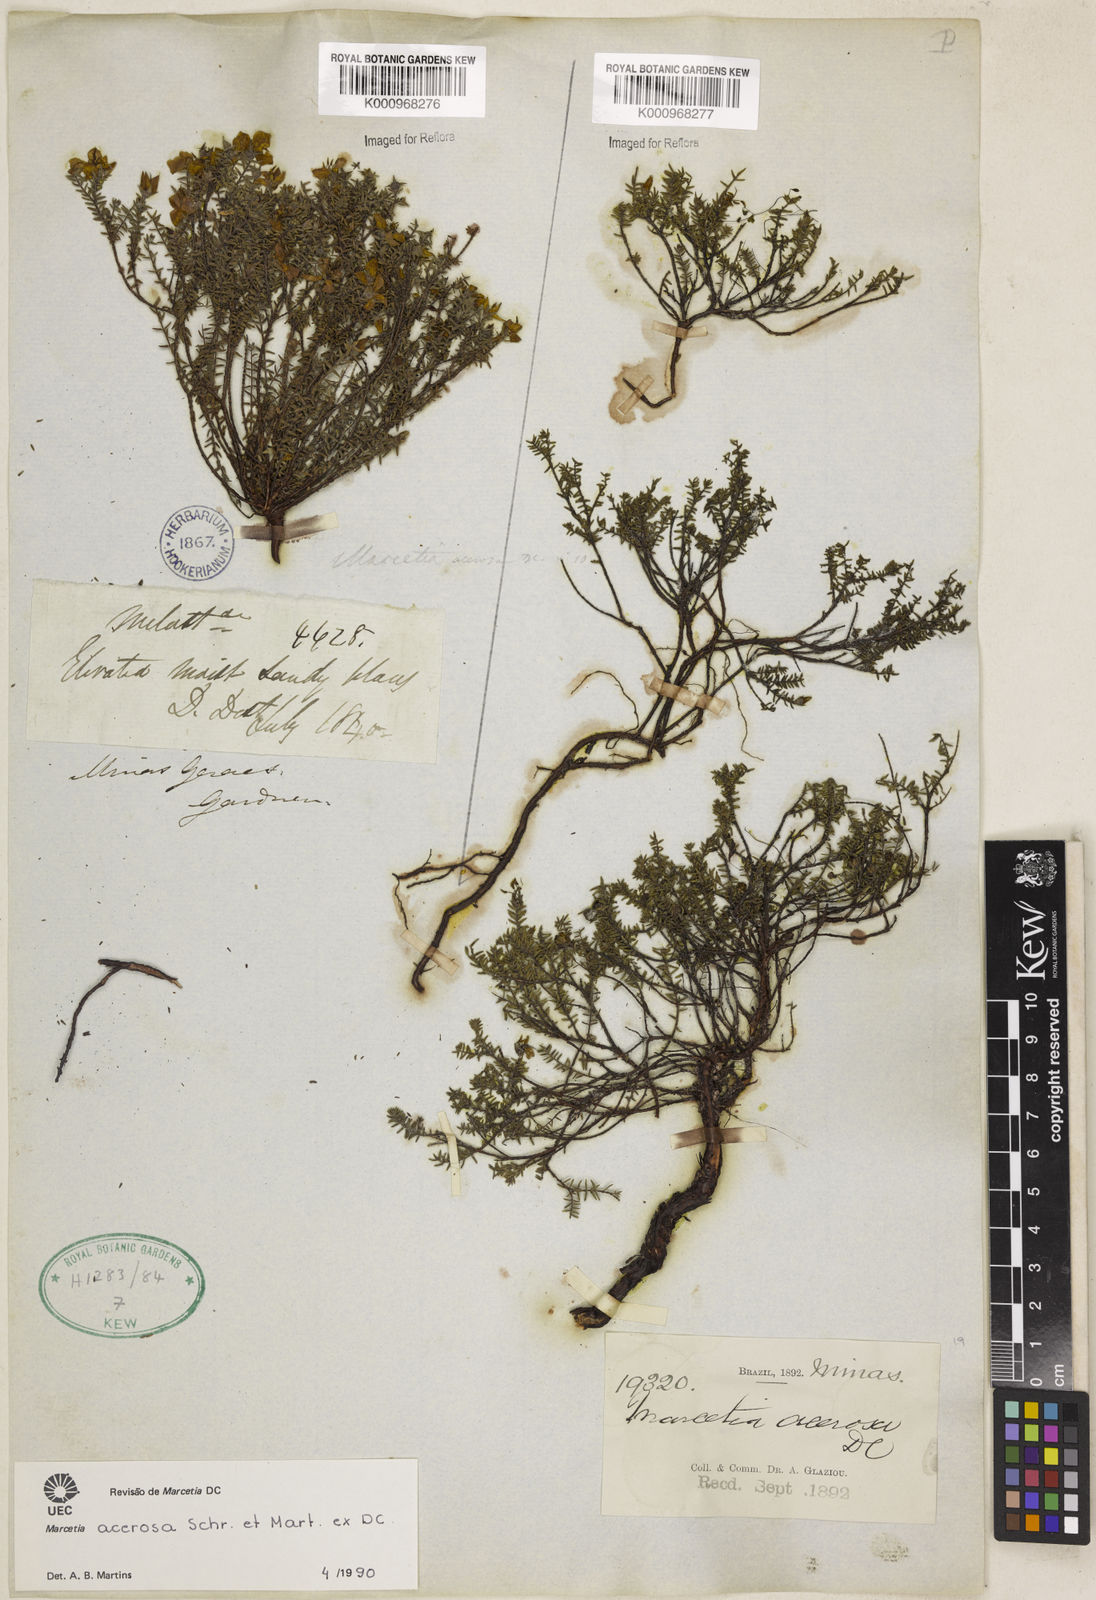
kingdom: Plantae
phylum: Tracheophyta
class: Magnoliopsida
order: Myrtales
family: Melastomataceae
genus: Marcetia
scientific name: Marcetia acerosa
